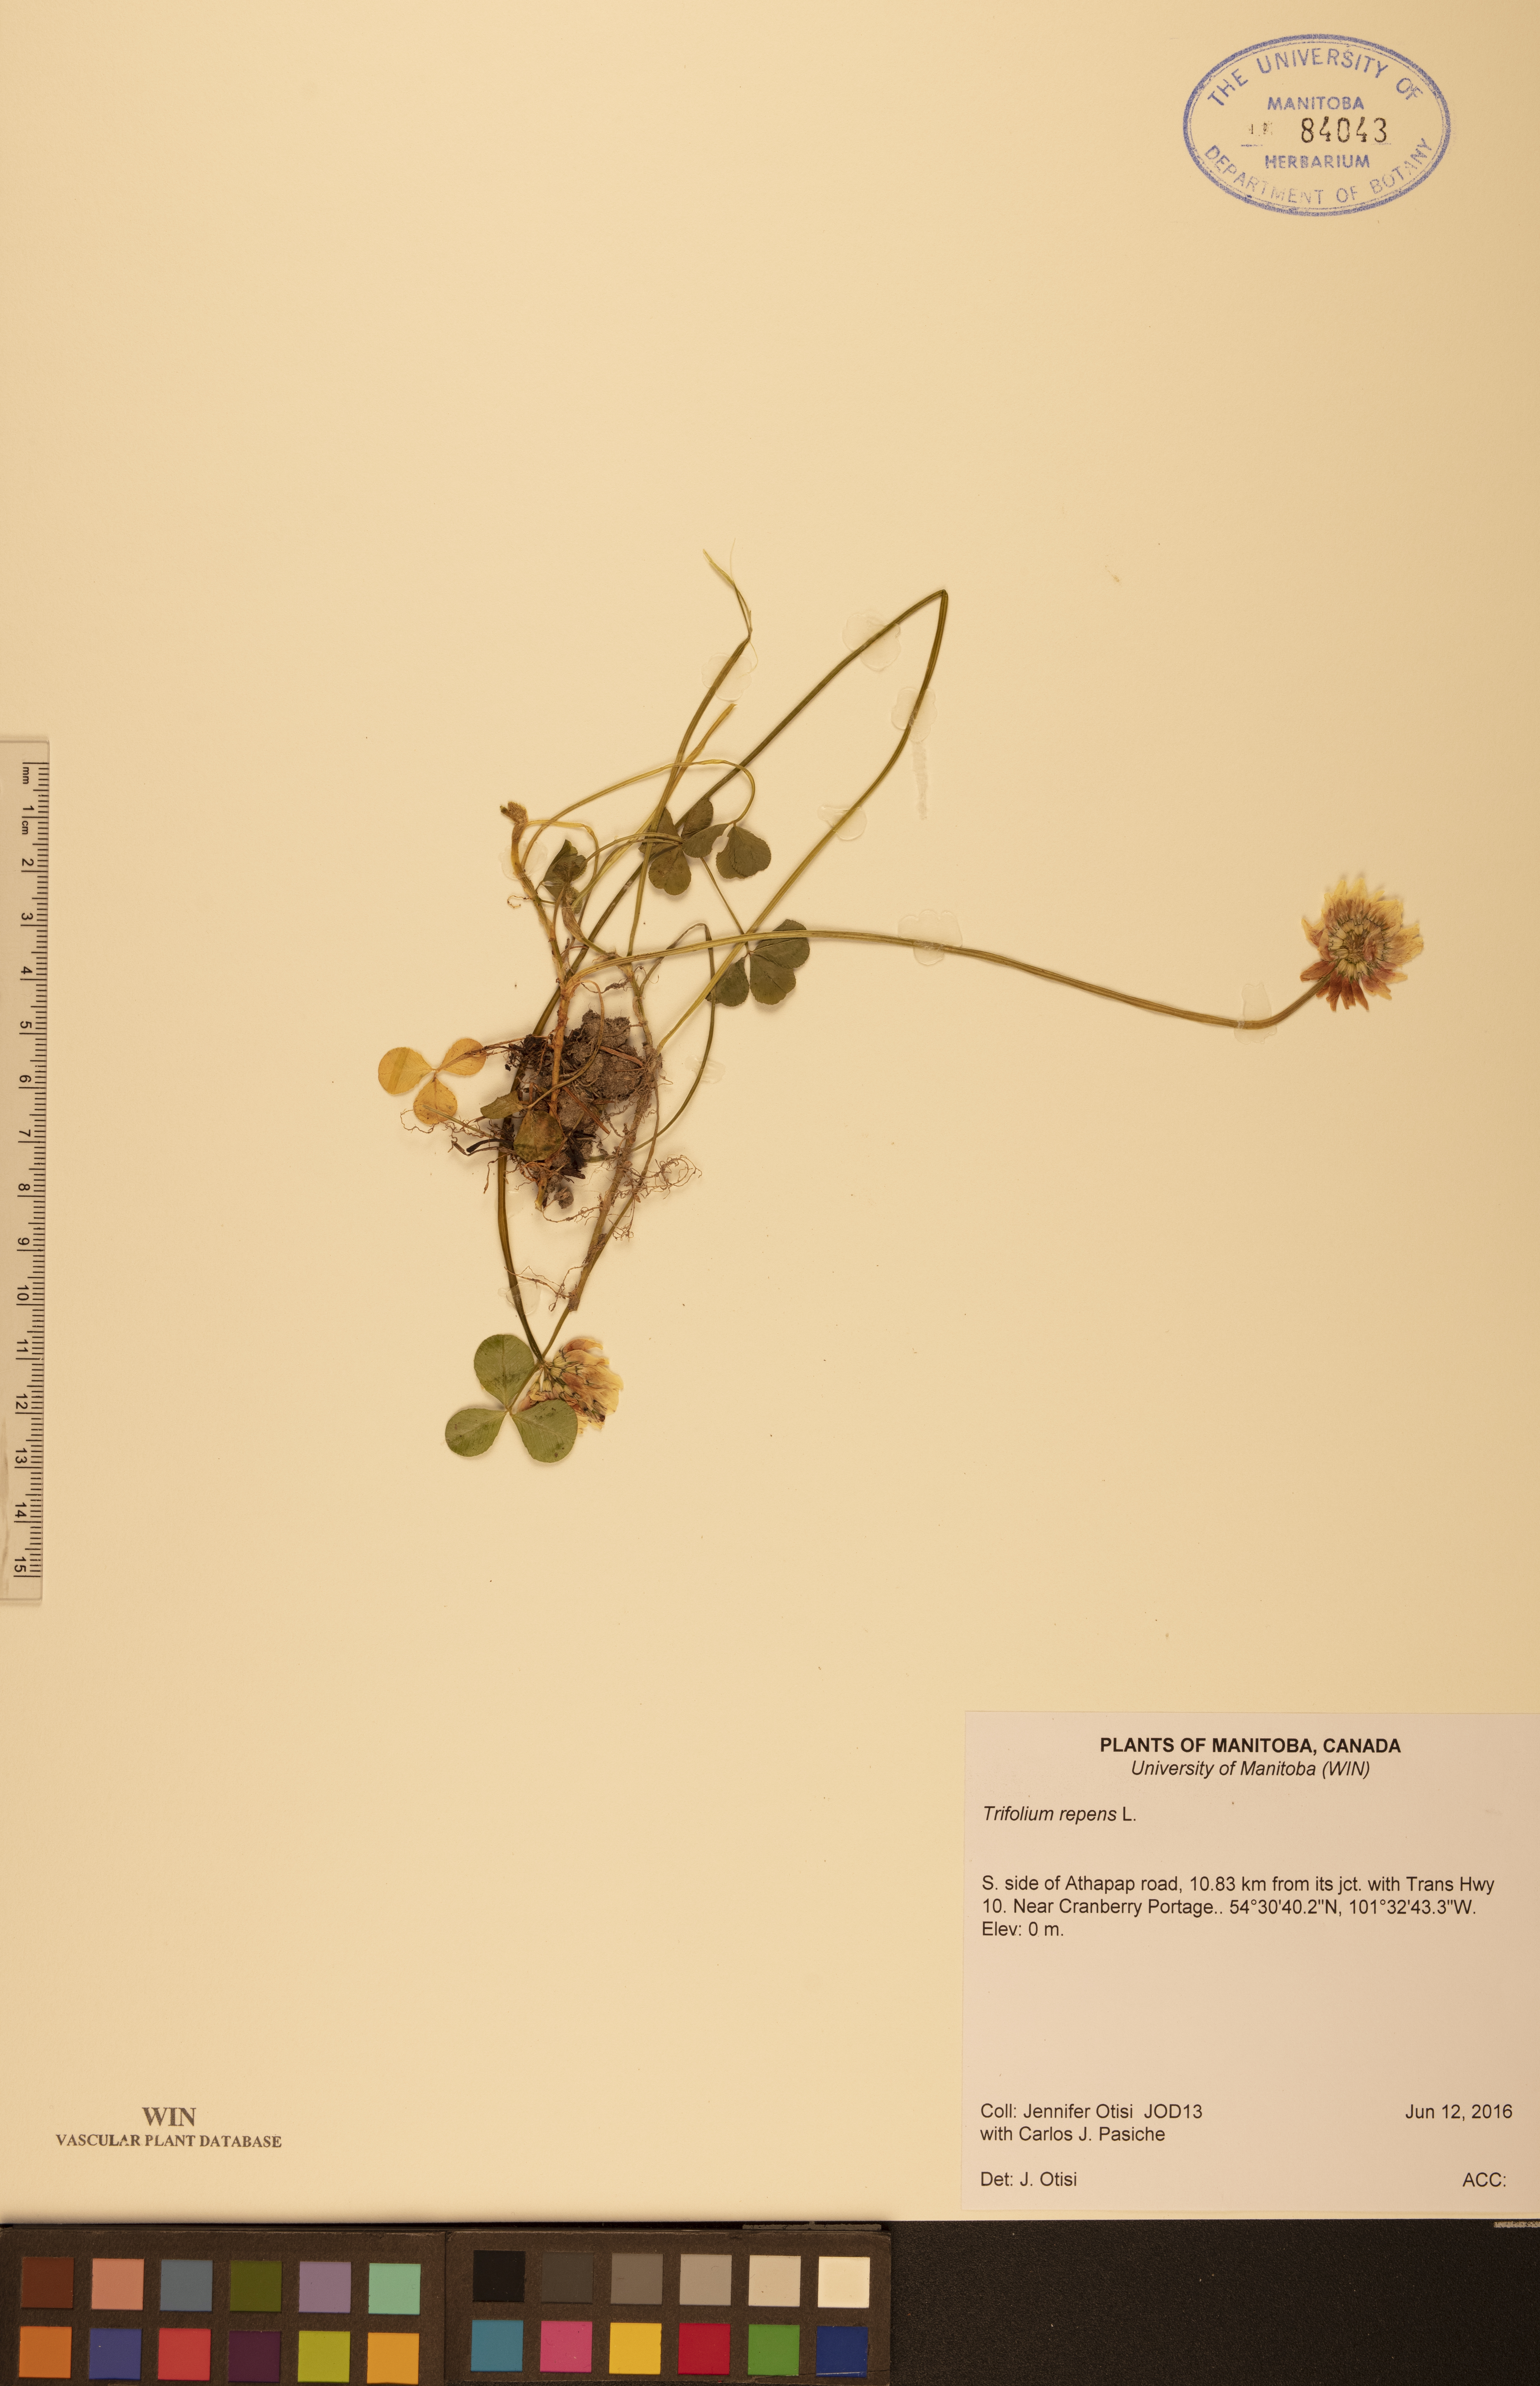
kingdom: Plantae
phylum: Tracheophyta
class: Magnoliopsida
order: Fabales
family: Fabaceae
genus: Trifolium
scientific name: Trifolium repens
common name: White clover
